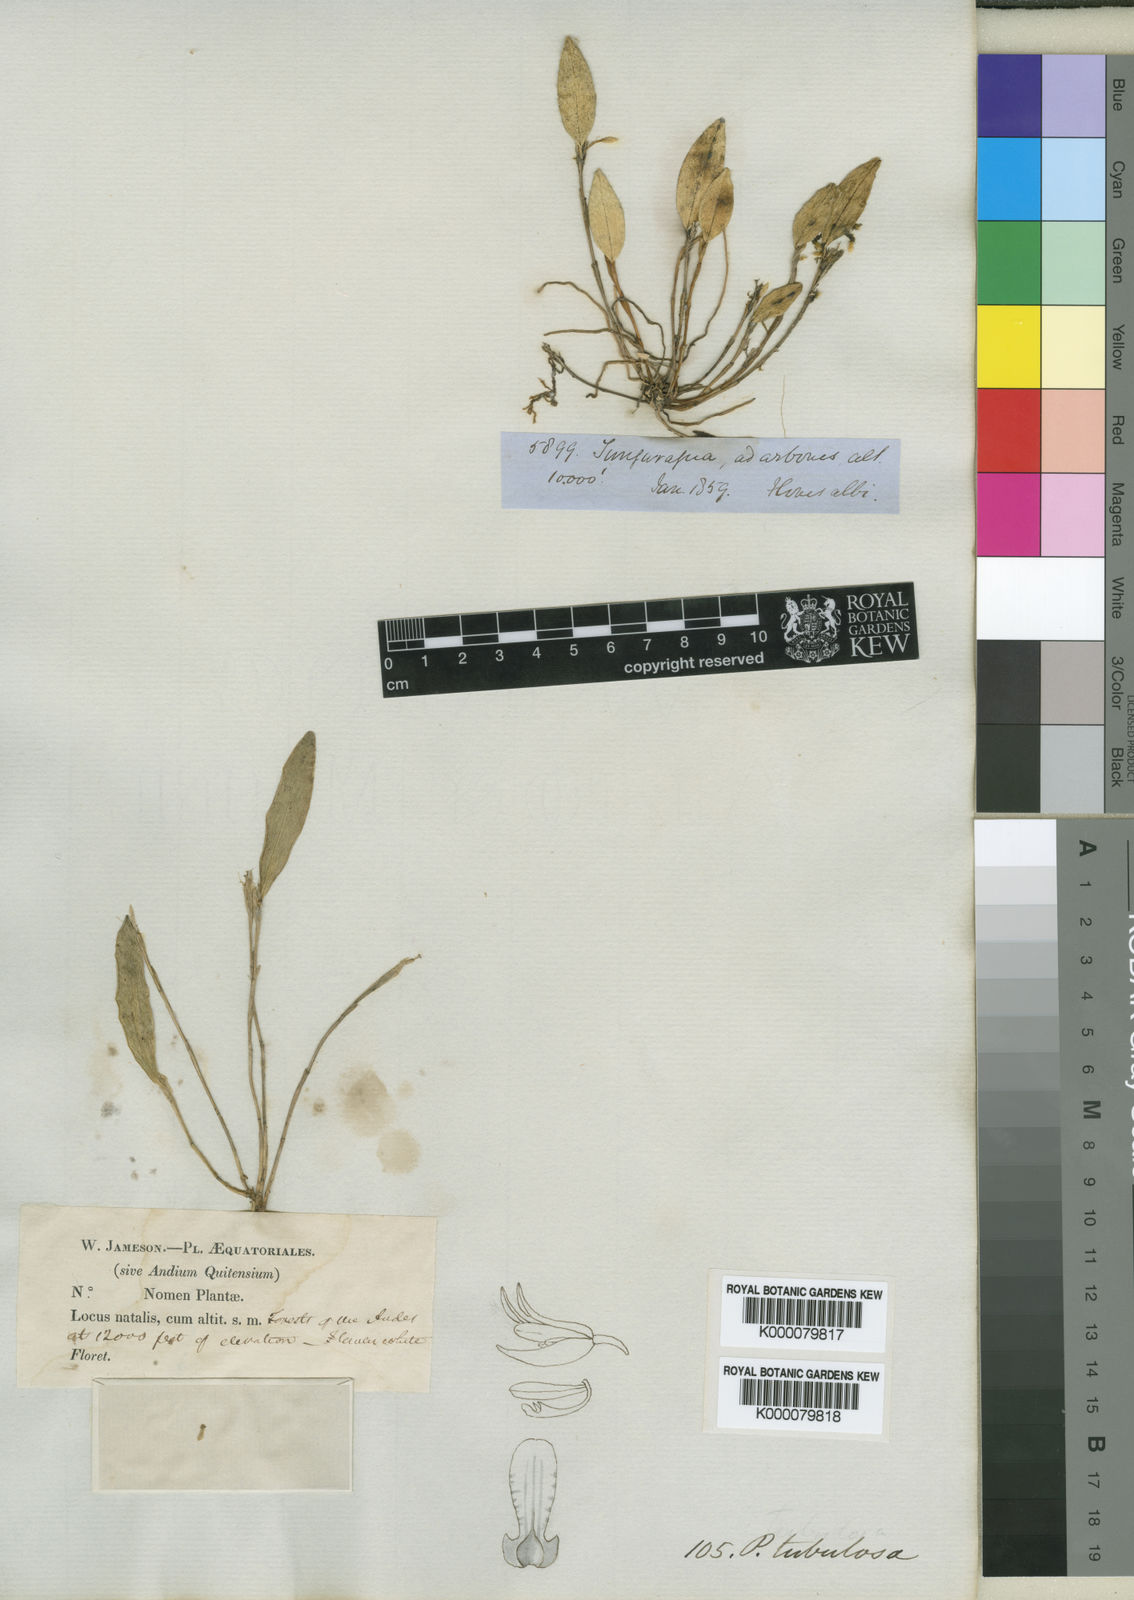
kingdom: Plantae
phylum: Tracheophyta
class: Liliopsida
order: Asparagales
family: Orchidaceae
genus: Pleurothallopsis
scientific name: Pleurothallopsis tubulosa
